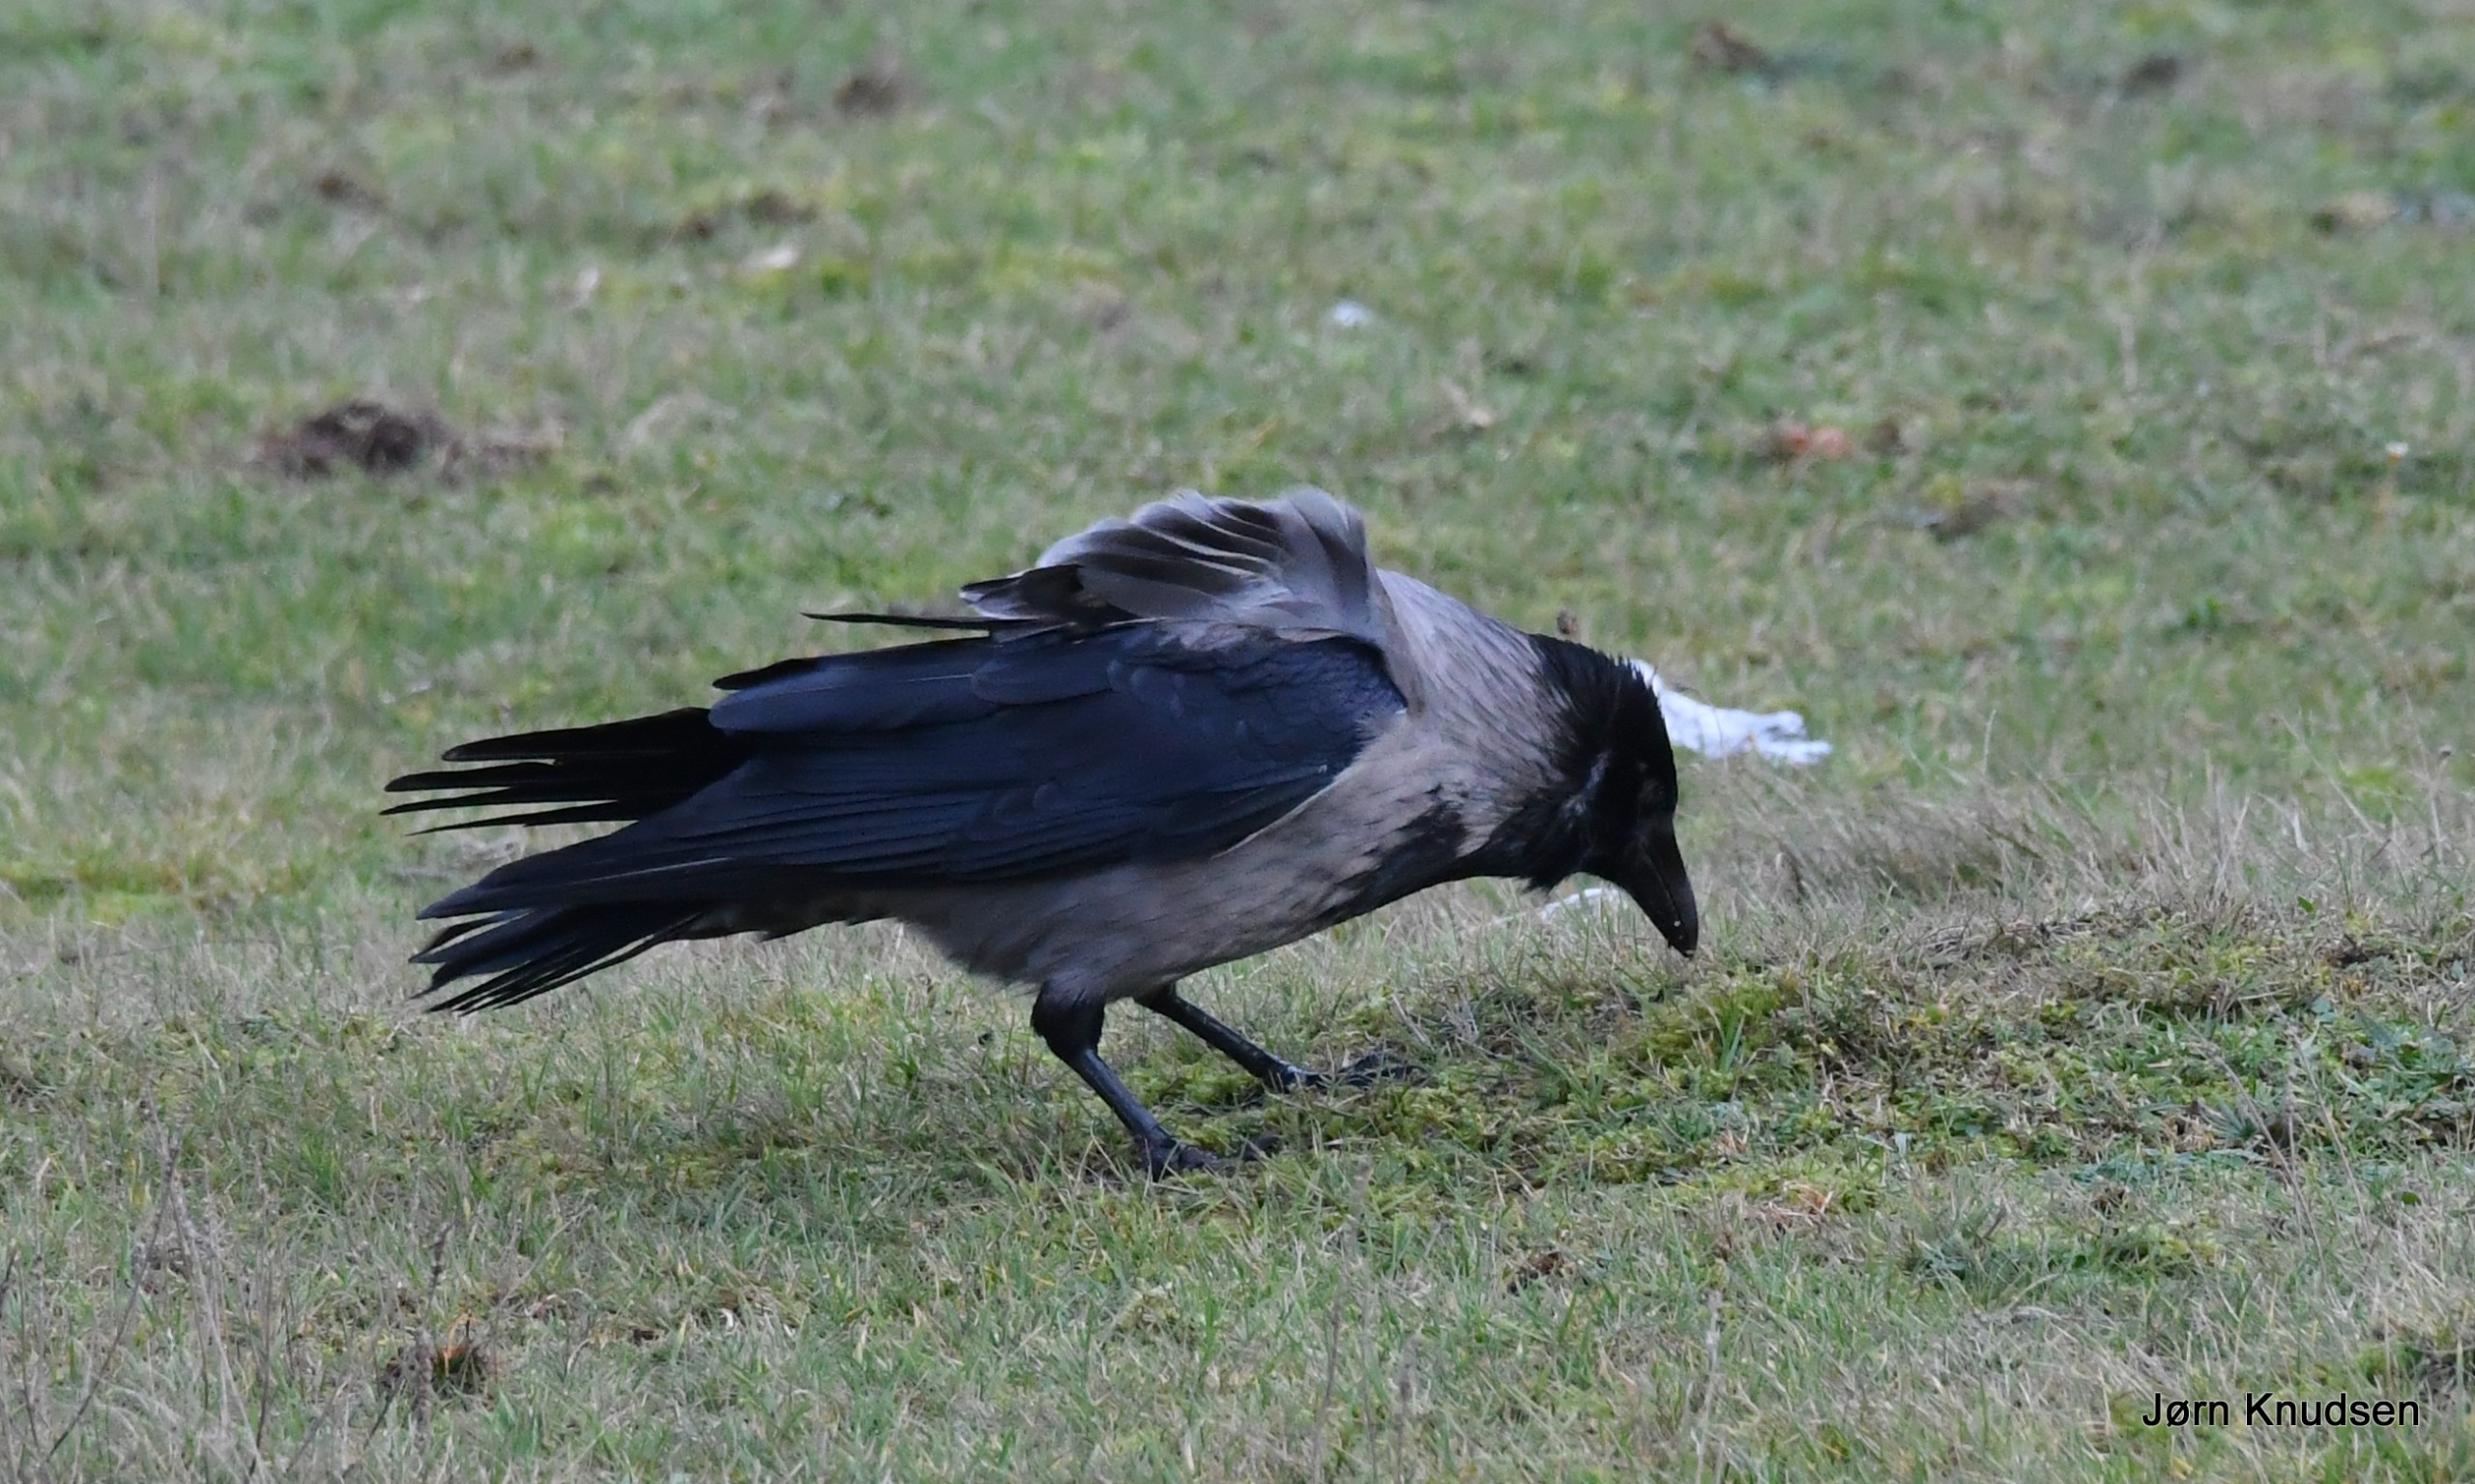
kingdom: Animalia
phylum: Chordata
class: Aves
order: Passeriformes
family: Corvidae
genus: Corvus
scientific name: Corvus cornix
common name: Gråkrage
